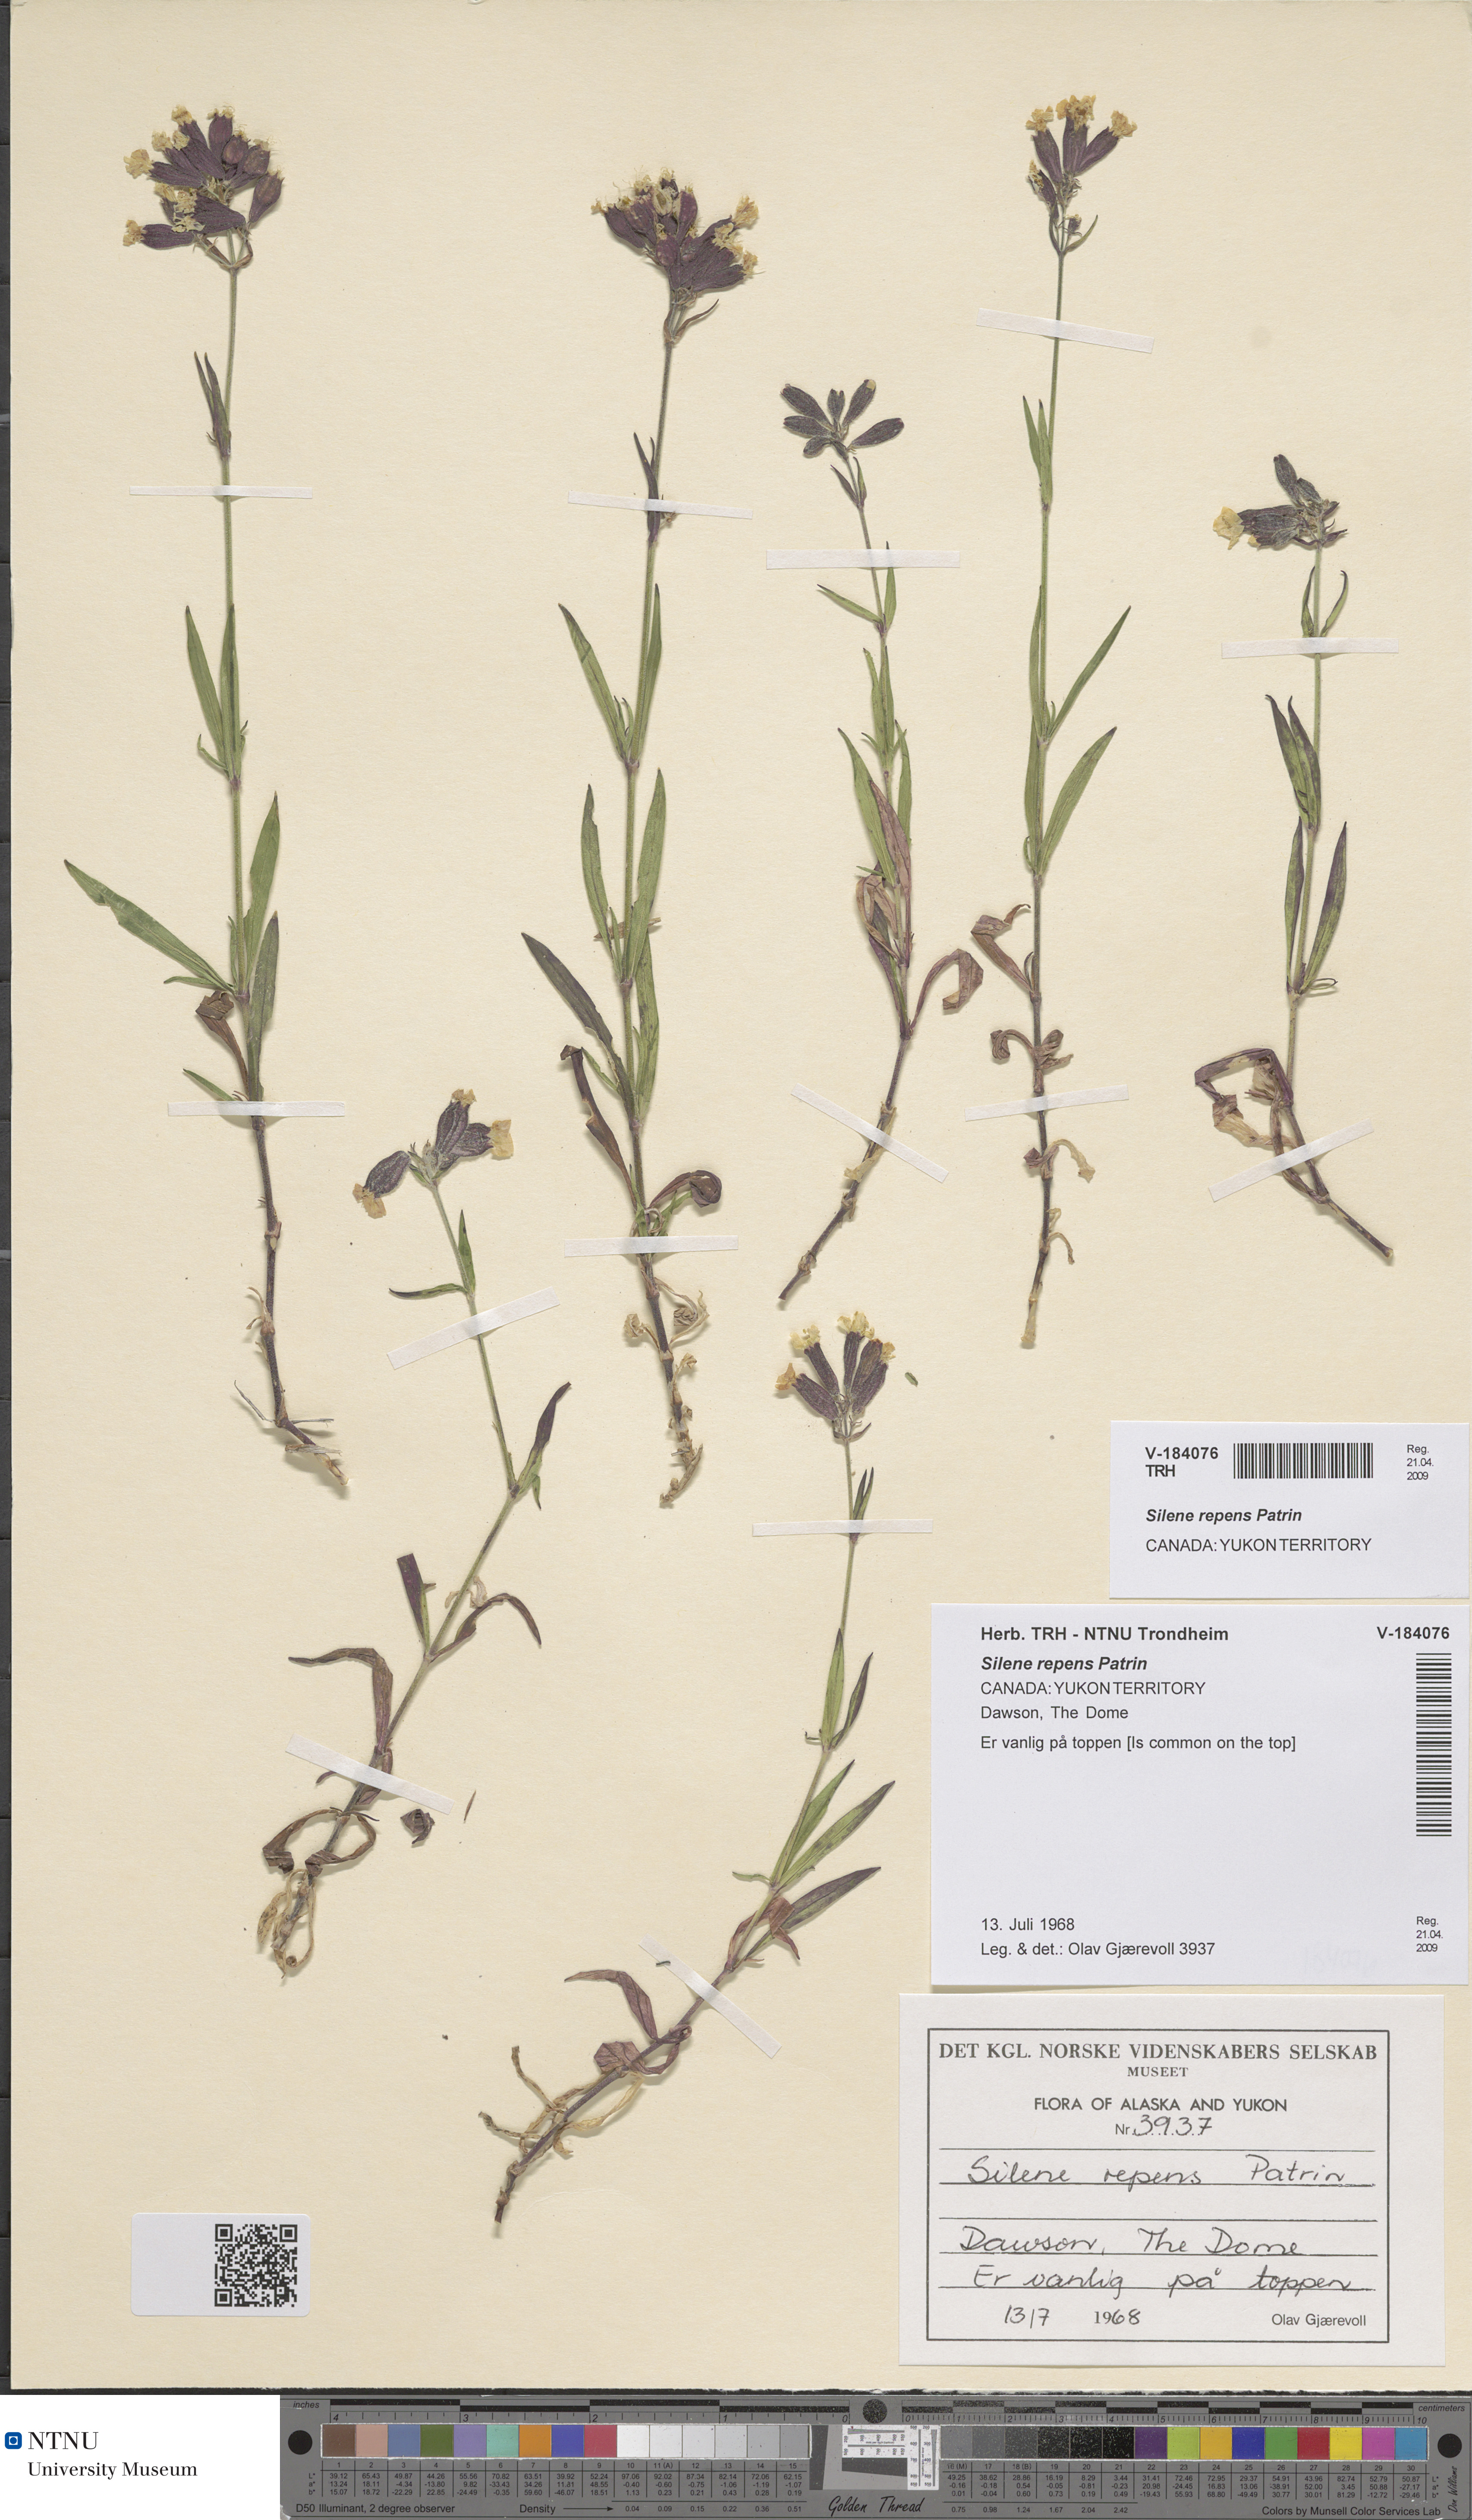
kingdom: Plantae
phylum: Tracheophyta
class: Magnoliopsida
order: Caryophyllales
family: Caryophyllaceae
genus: Silene
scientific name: Silene repens
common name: Pink campion
